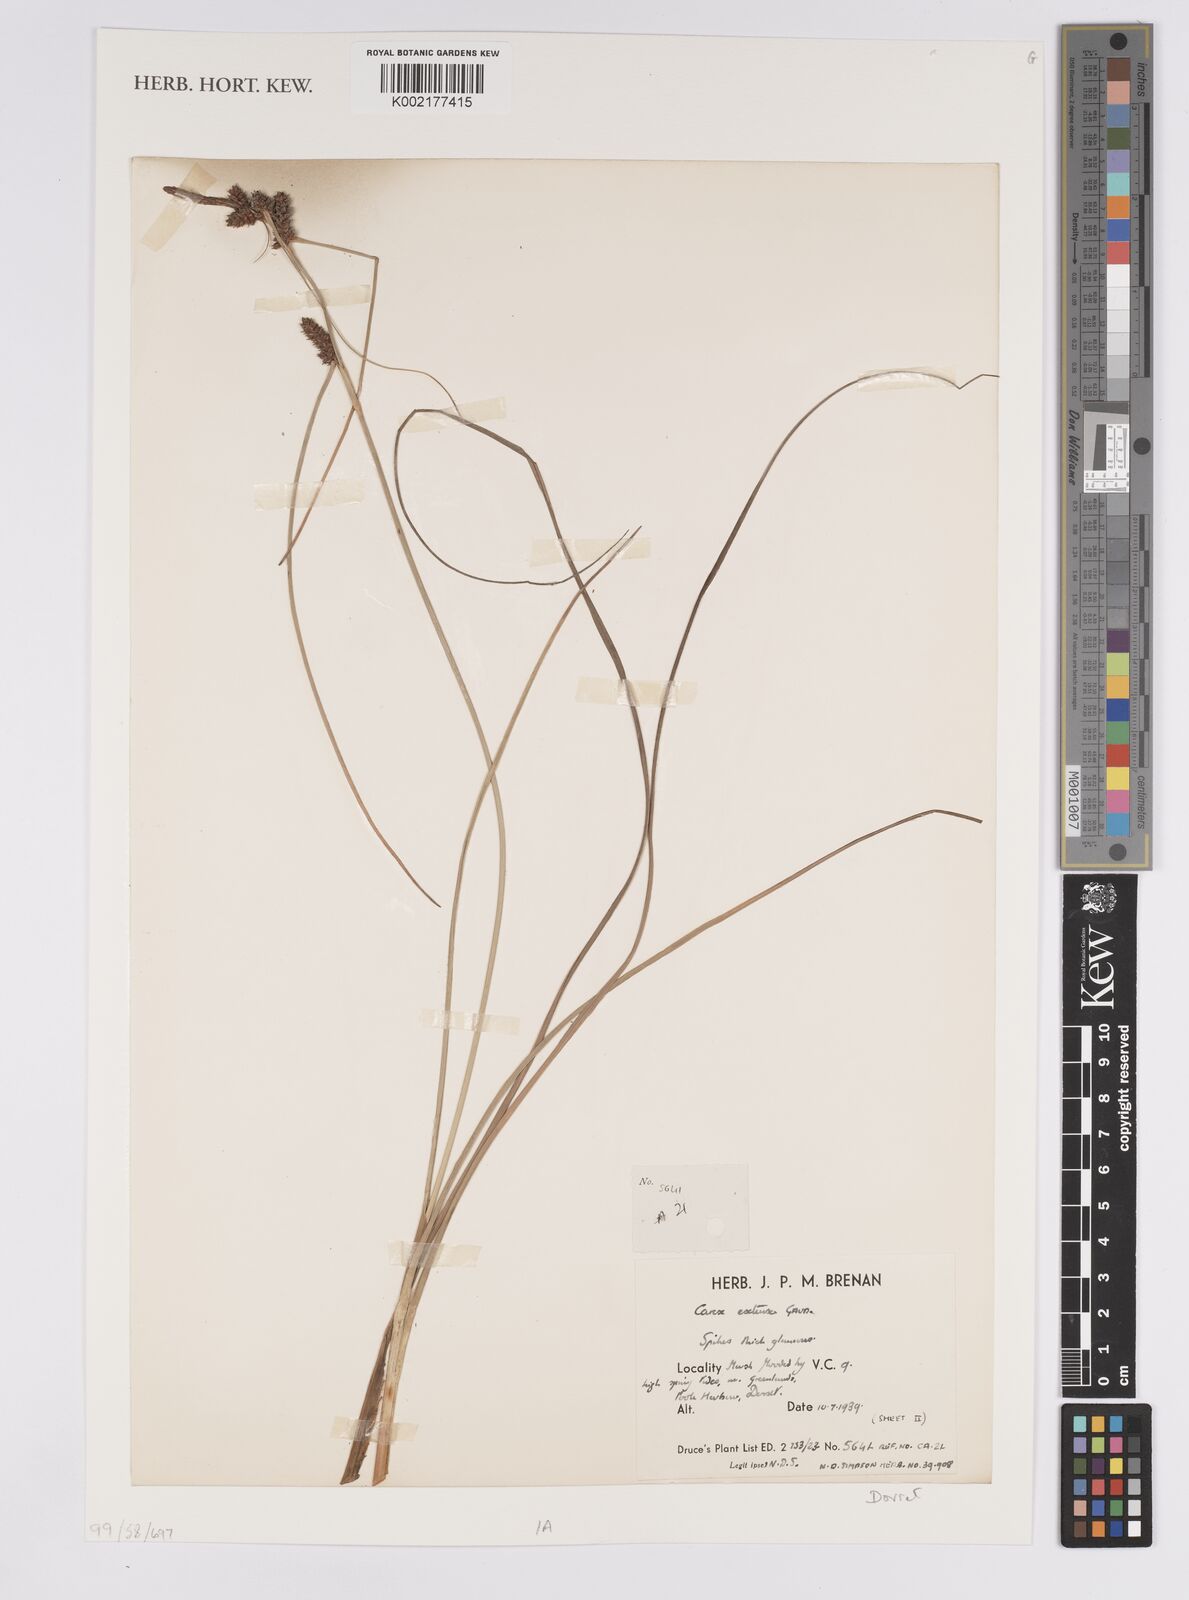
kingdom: Plantae
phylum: Tracheophyta
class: Liliopsida
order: Poales
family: Cyperaceae
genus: Carex
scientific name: Carex extensa
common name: Long-bracted sedge
